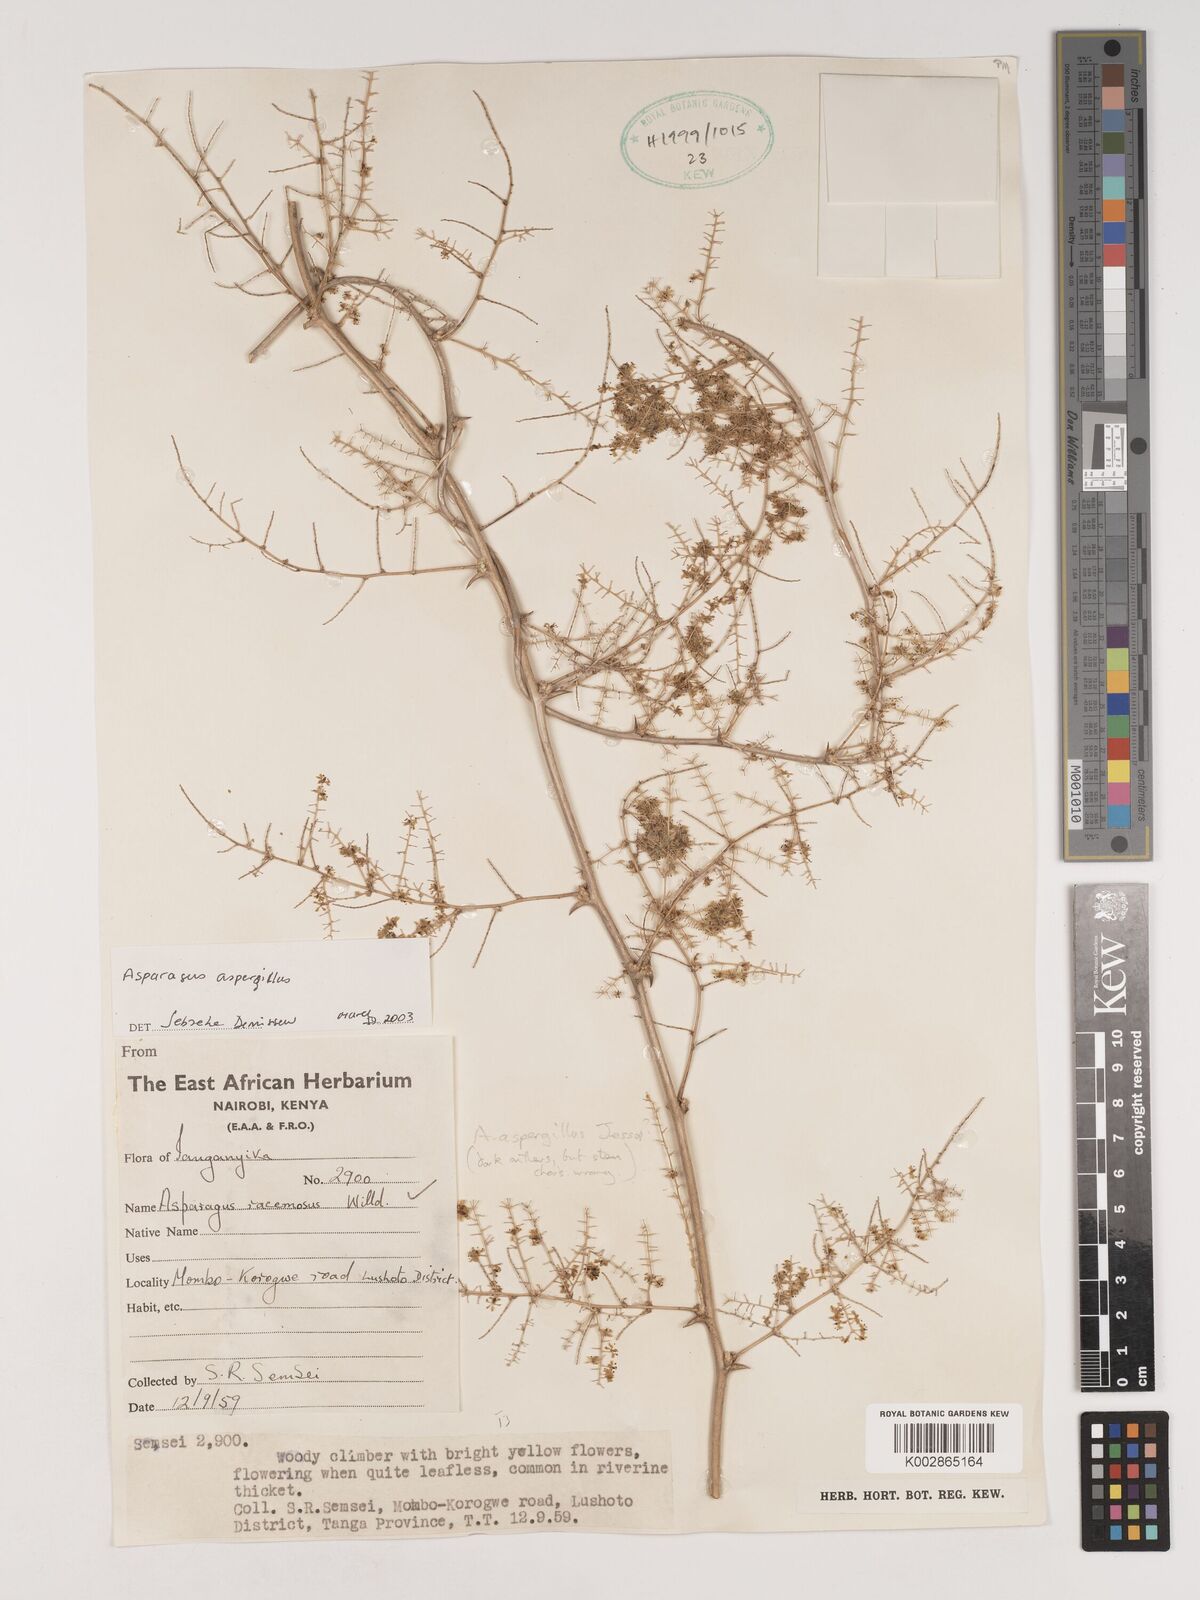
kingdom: Plantae
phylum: Tracheophyta
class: Liliopsida
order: Asparagales
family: Asparagaceae
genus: Asparagus
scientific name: Asparagus aspergillus
